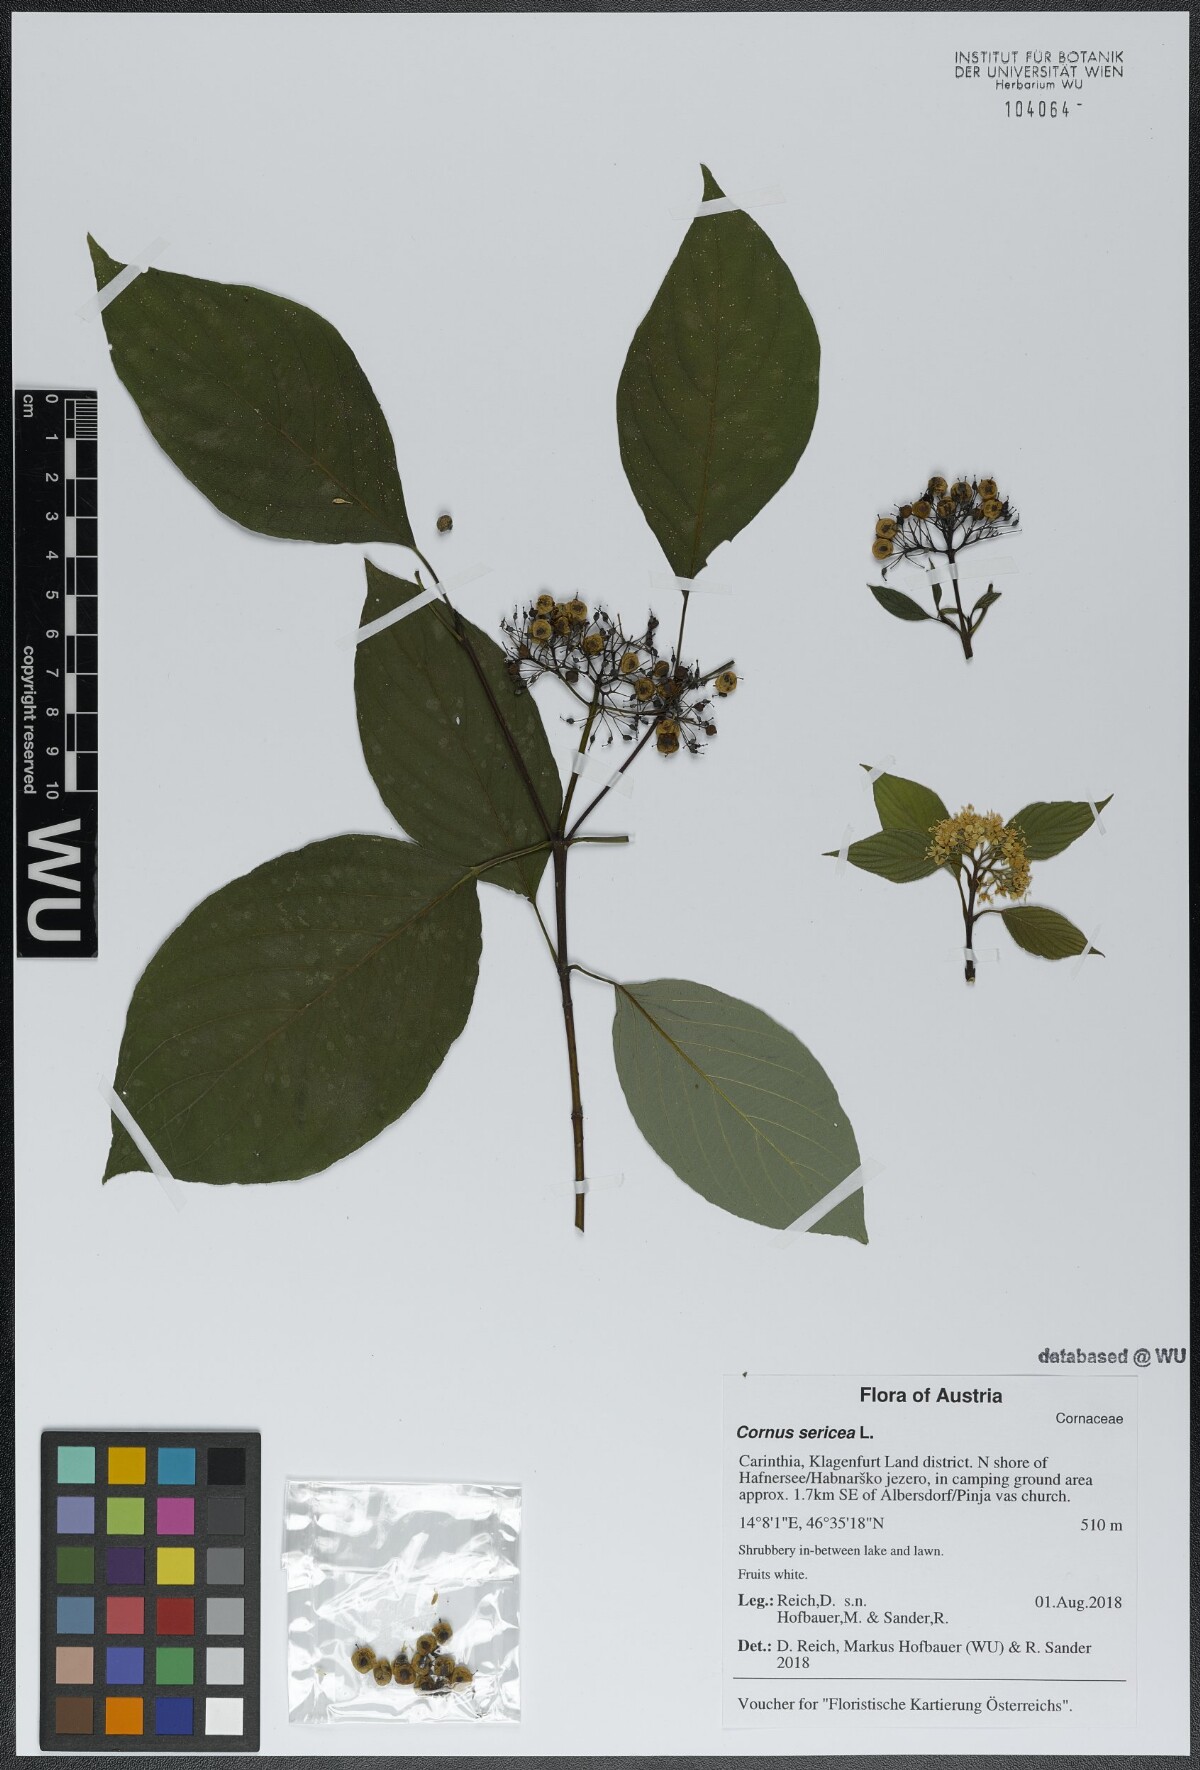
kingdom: Plantae
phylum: Tracheophyta
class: Magnoliopsida
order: Cornales
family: Cornaceae
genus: Cornus
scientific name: Cornus sericea
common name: Red-osier dogwood
